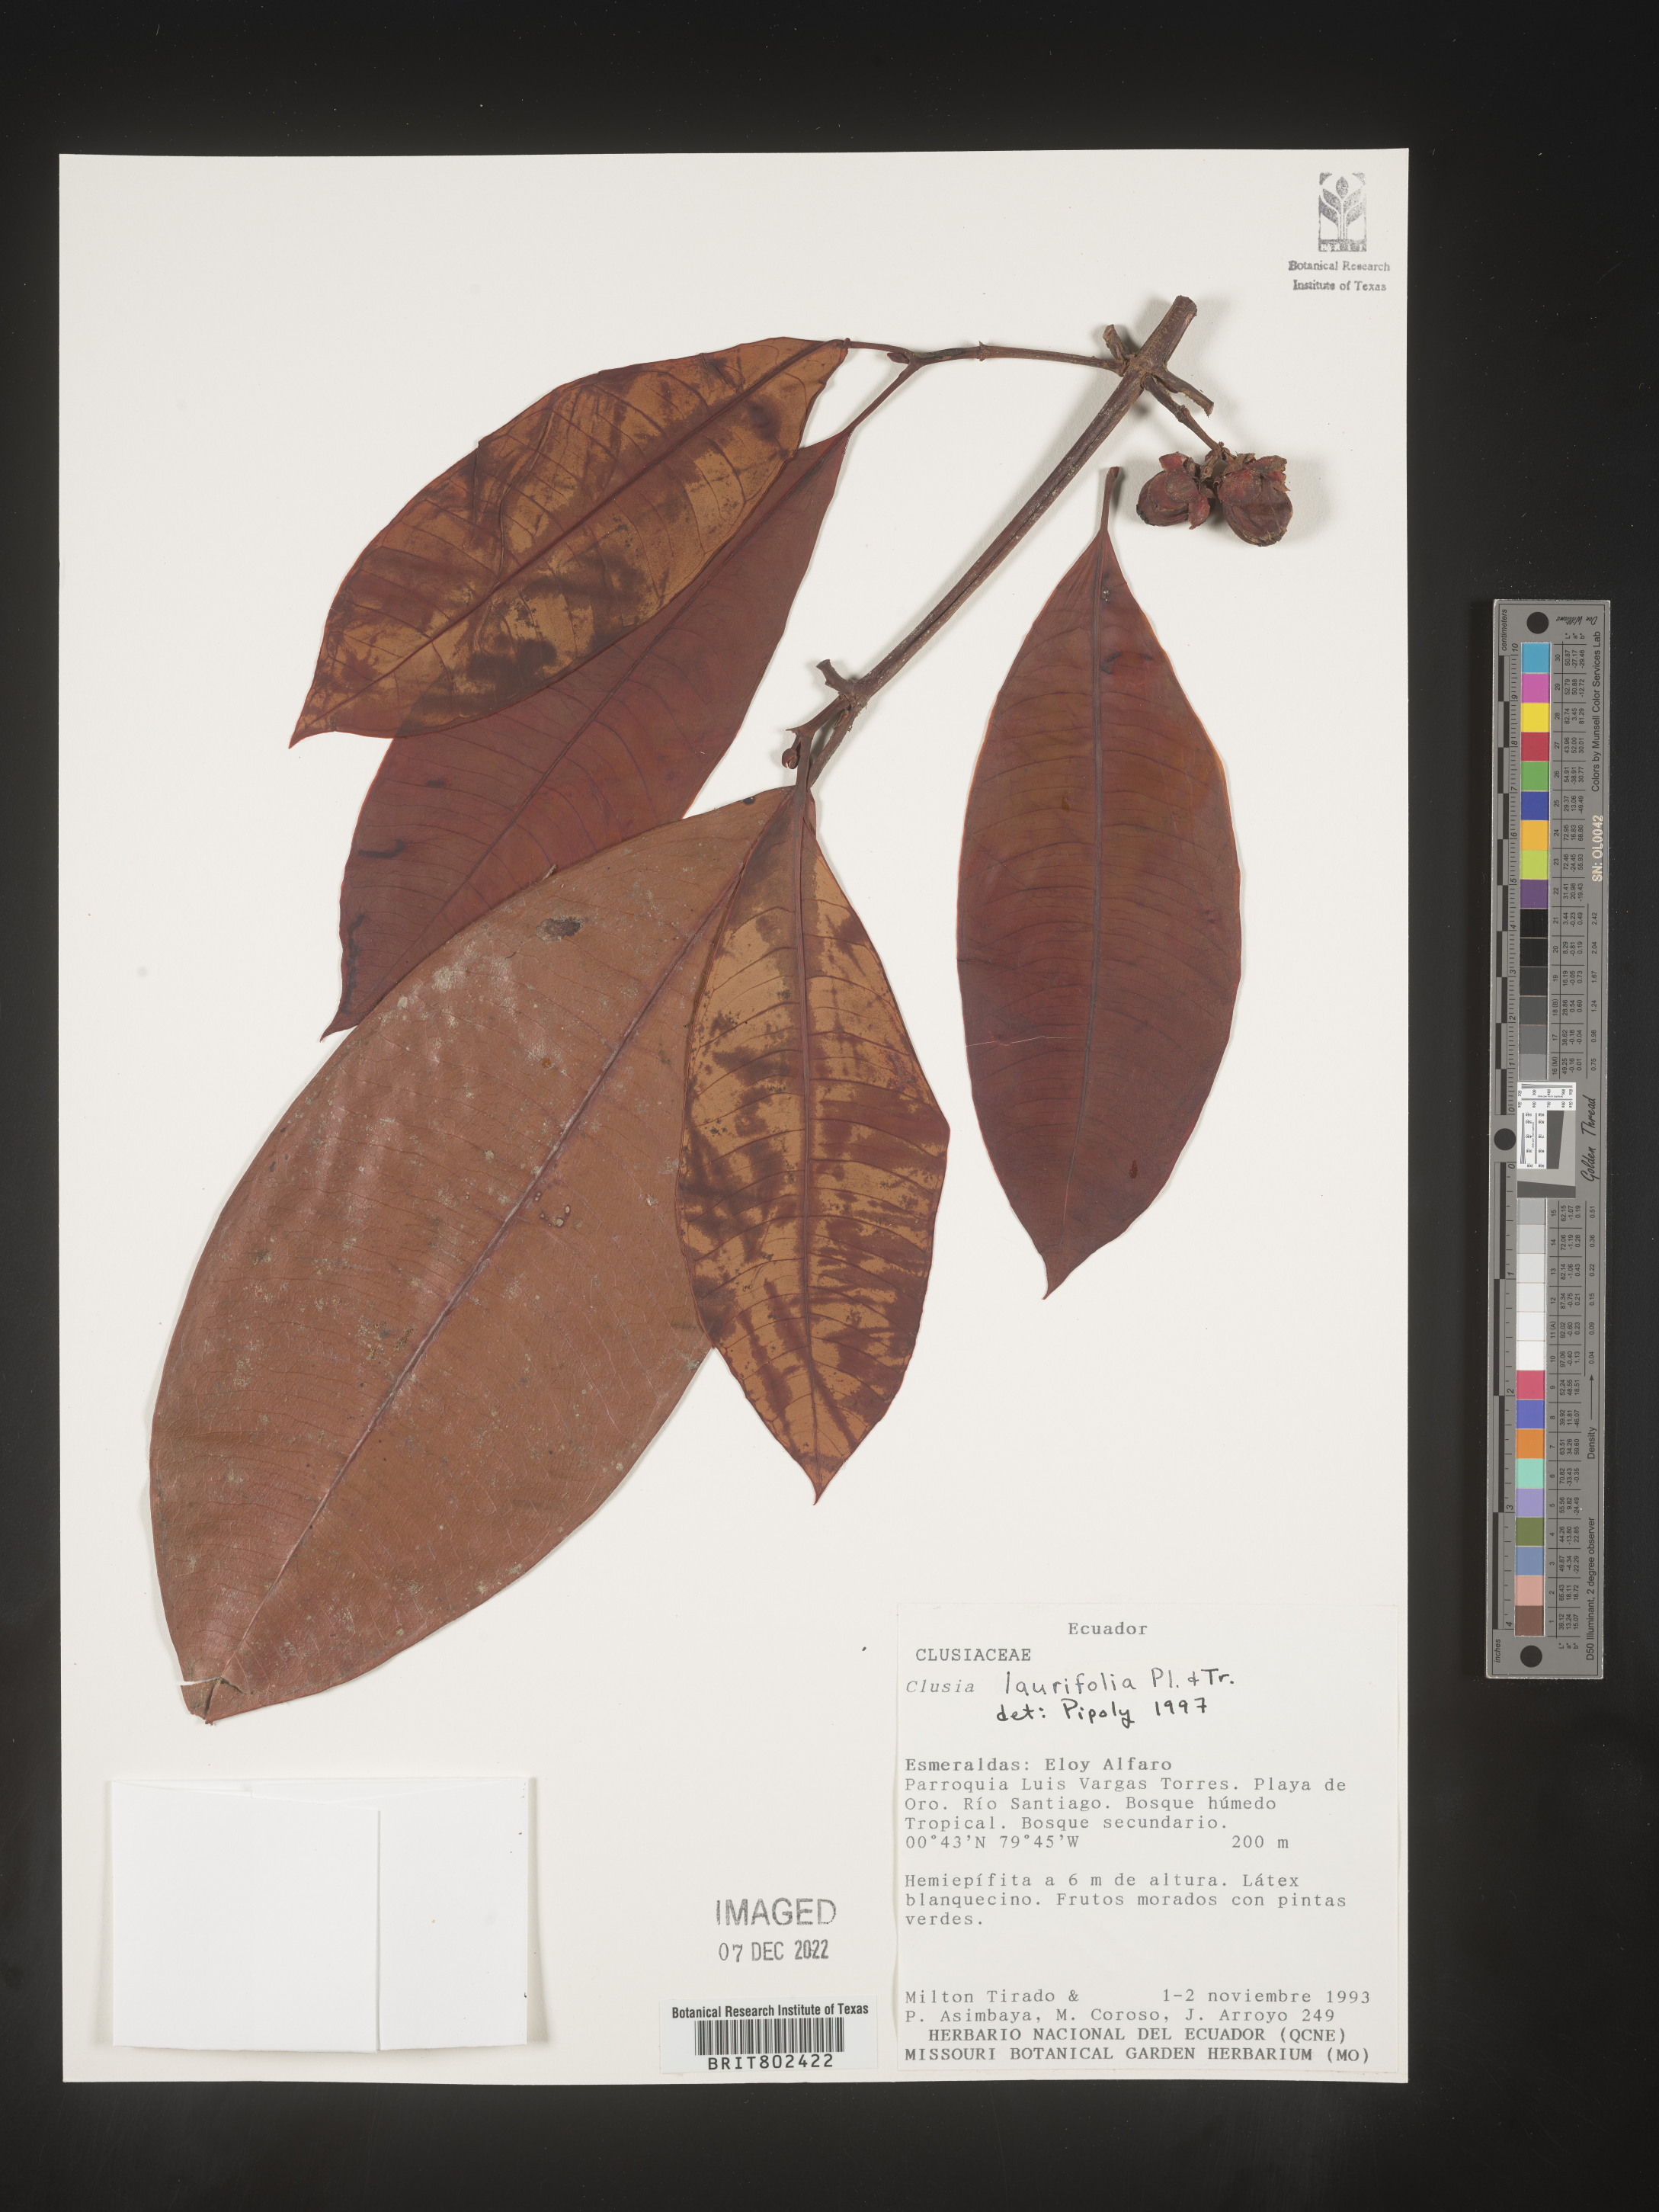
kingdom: Plantae
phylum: Tracheophyta
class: Magnoliopsida
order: Malpighiales
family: Clusiaceae
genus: Clusia
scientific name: Clusia laurifolia
